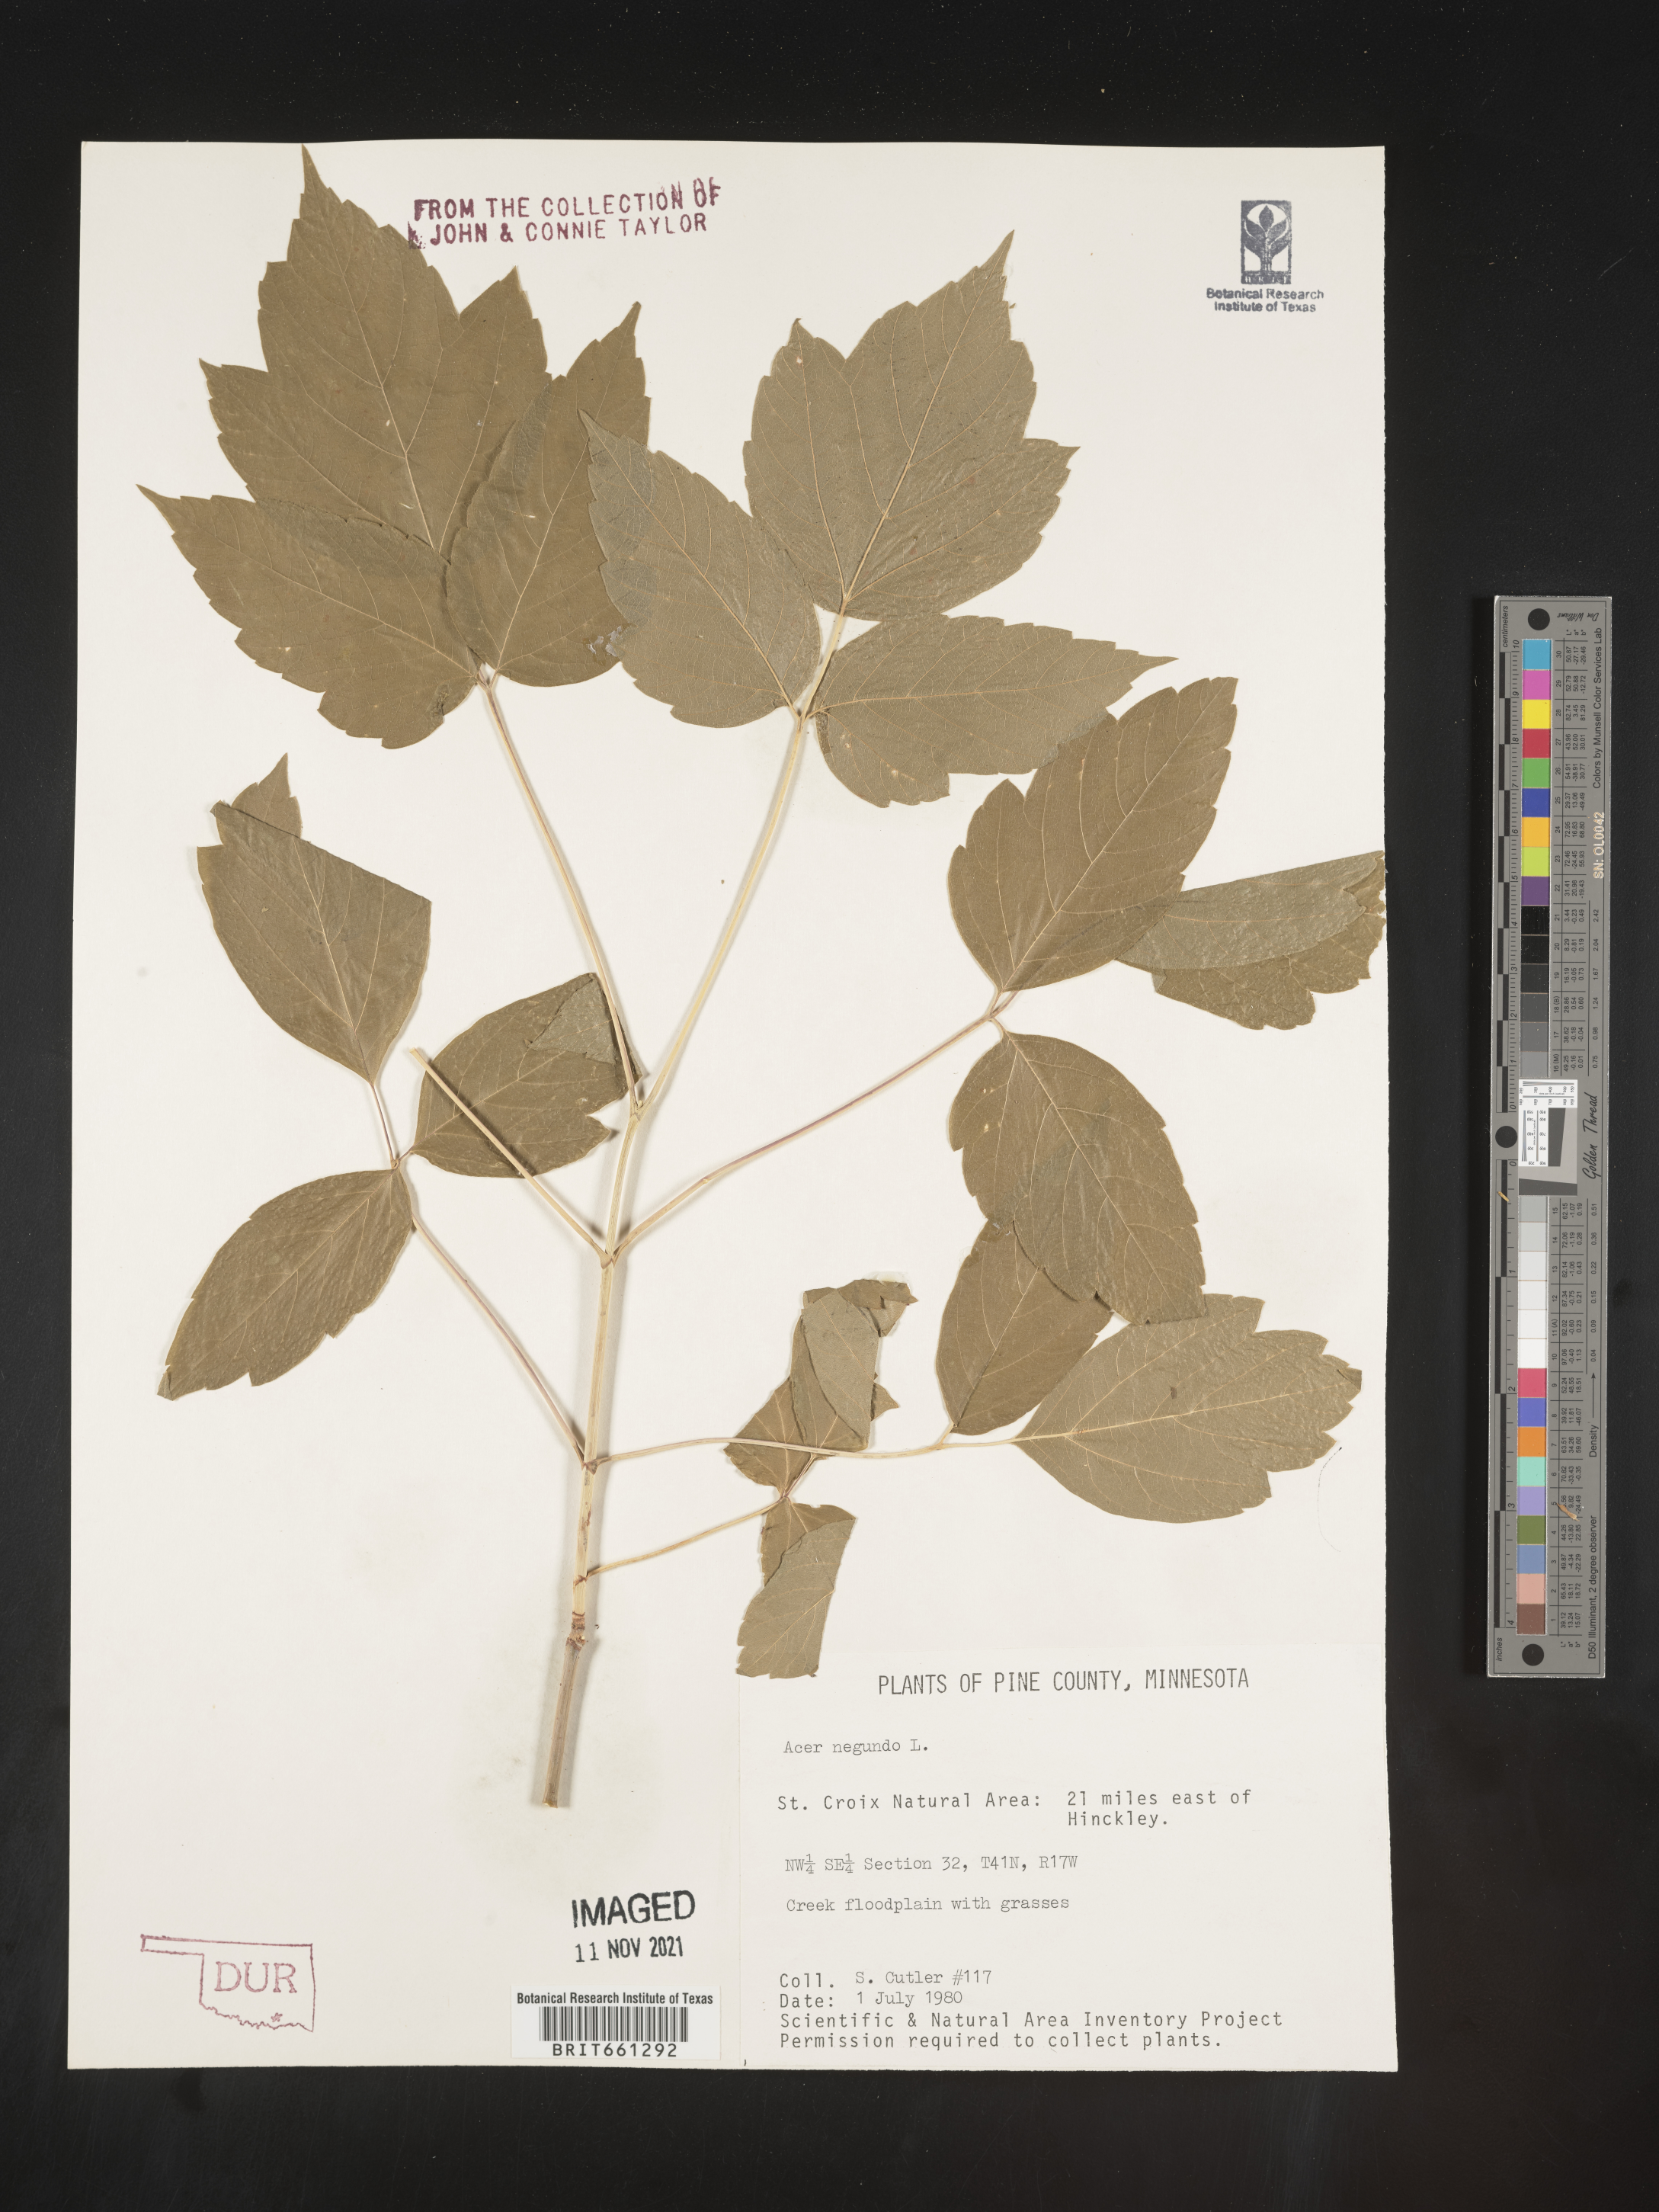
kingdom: Plantae
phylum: Tracheophyta
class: Magnoliopsida
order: Sapindales
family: Sapindaceae
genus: Acer
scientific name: Acer negundo
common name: Ashleaf maple
